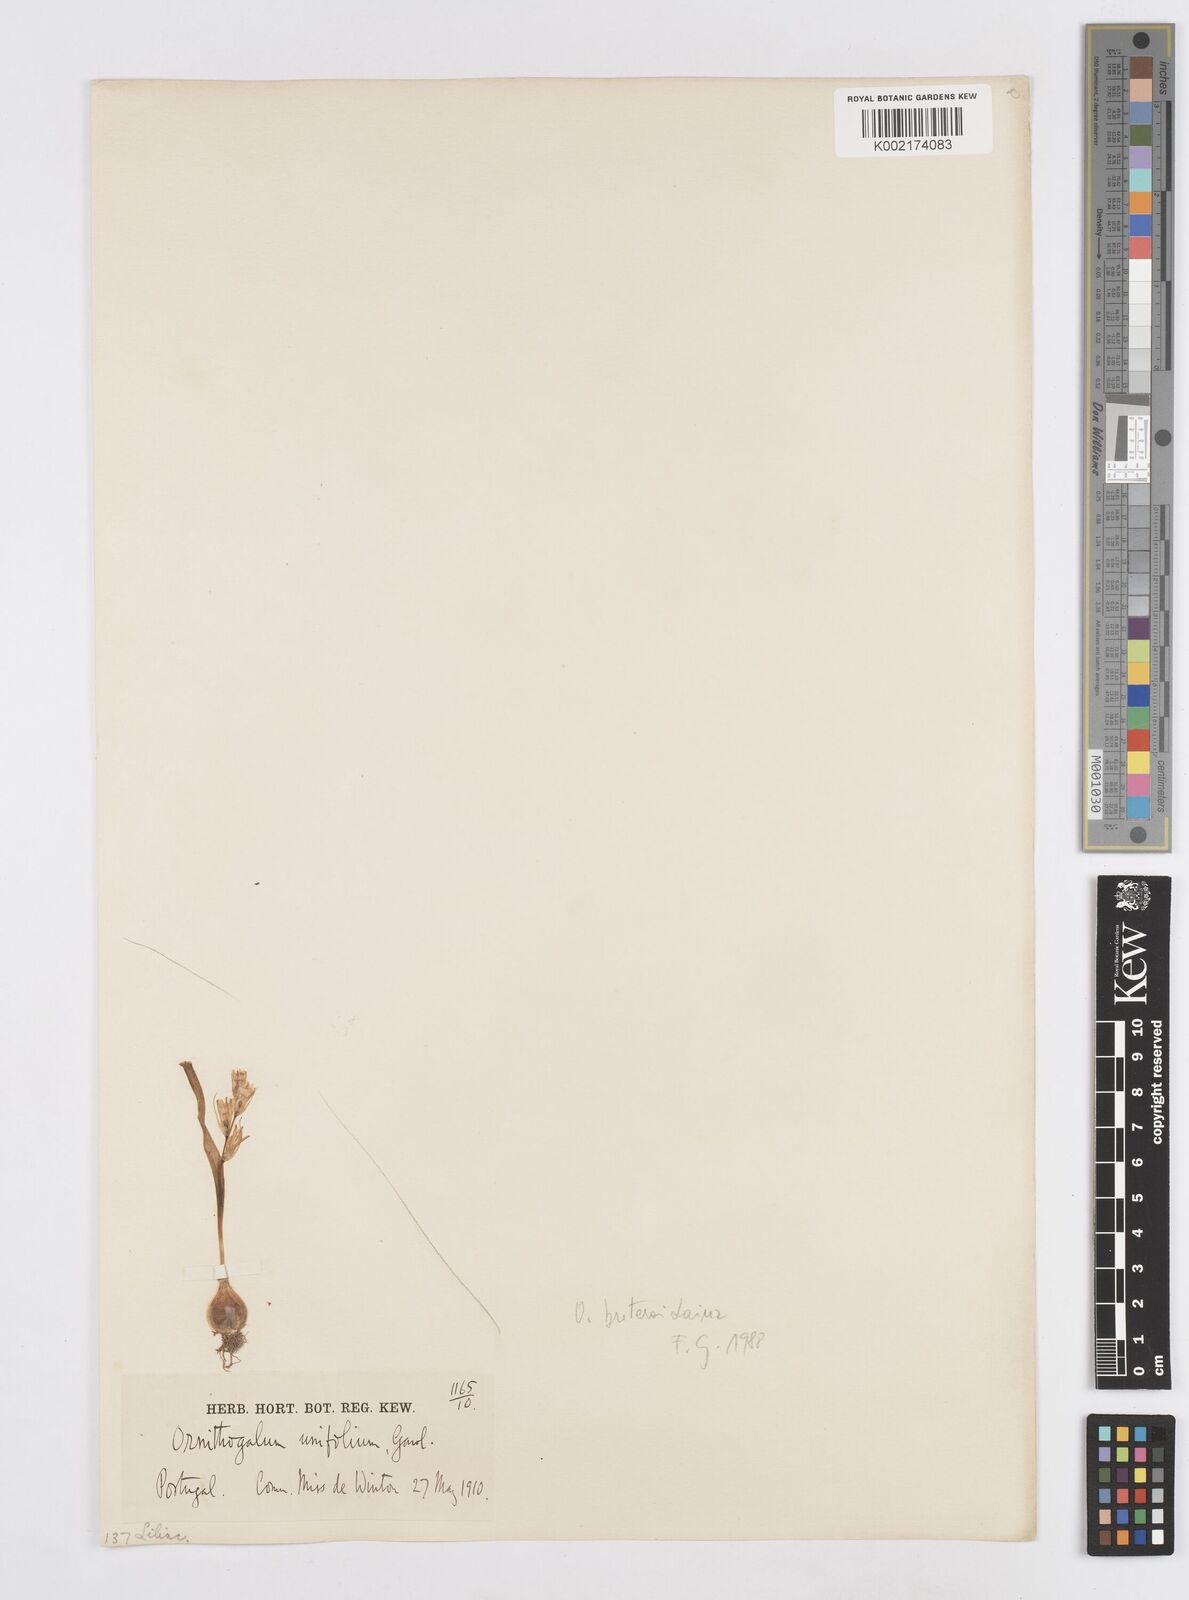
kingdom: Plantae
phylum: Tracheophyta
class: Liliopsida
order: Asparagales
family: Asparagaceae
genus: Ornithogalum
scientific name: Ornithogalum broteroi
